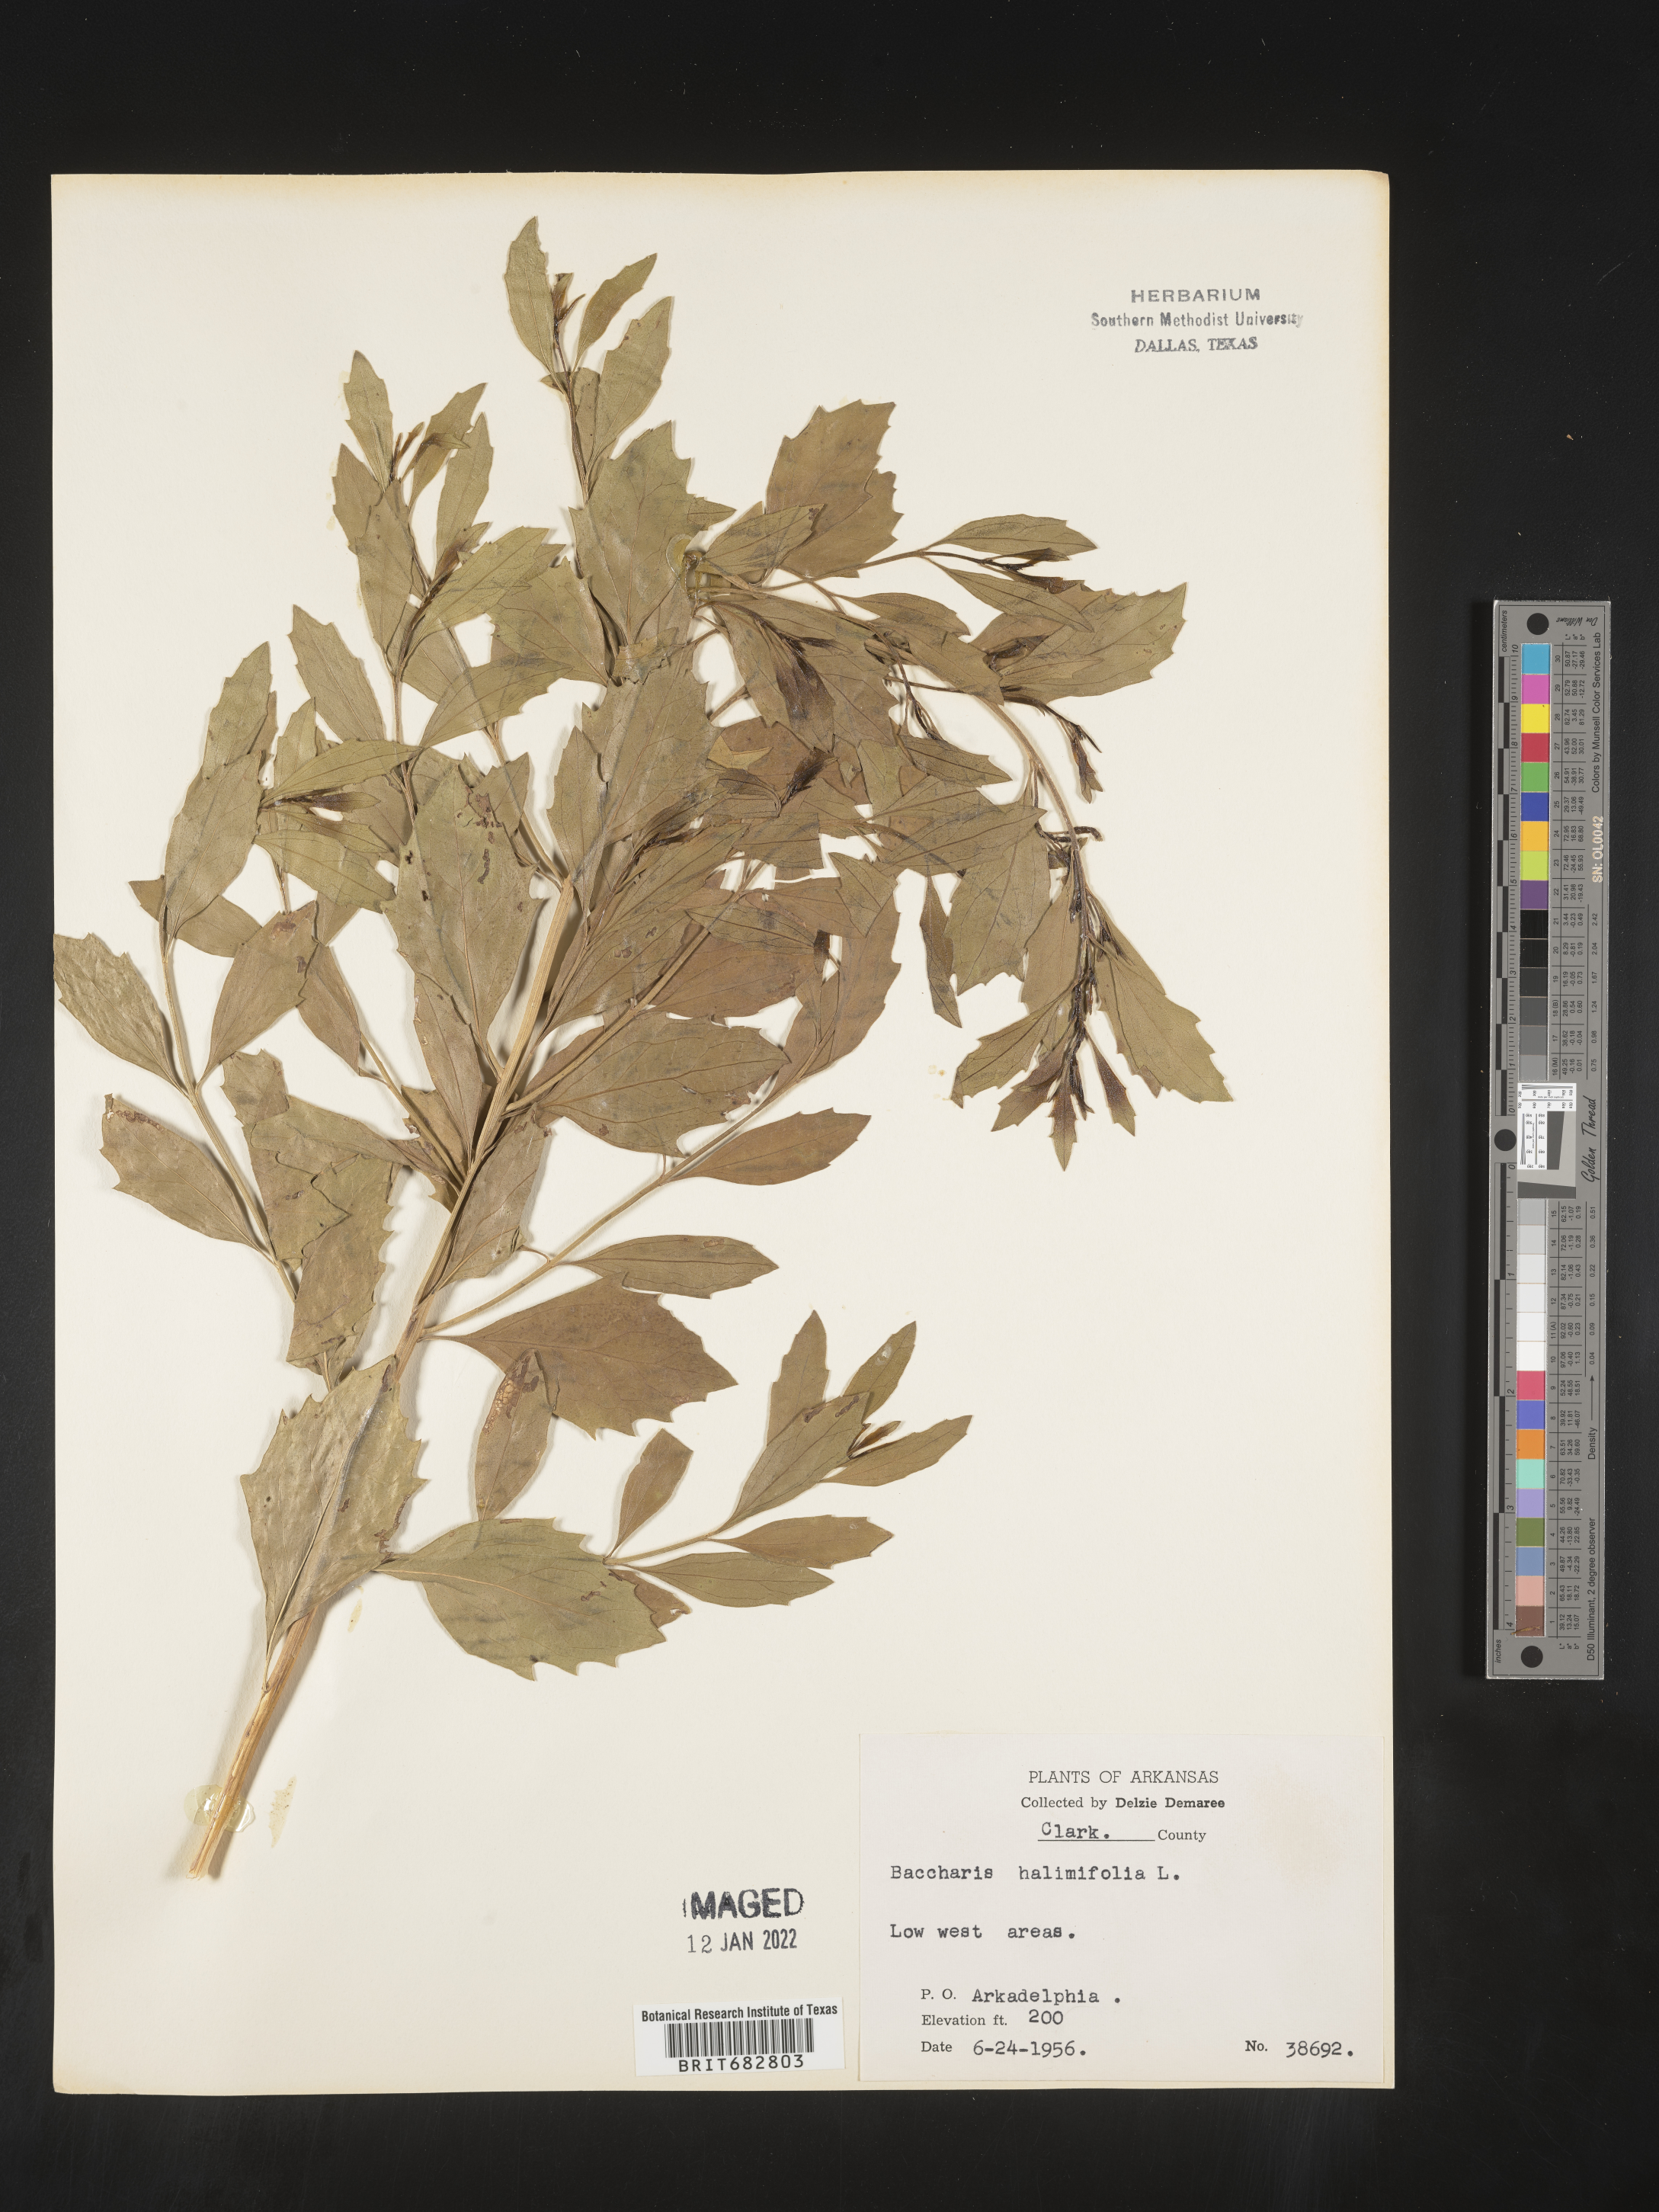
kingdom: Plantae
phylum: Tracheophyta
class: Magnoliopsida
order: Asterales
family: Asteraceae
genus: Nidorella
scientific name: Nidorella ivifolia
